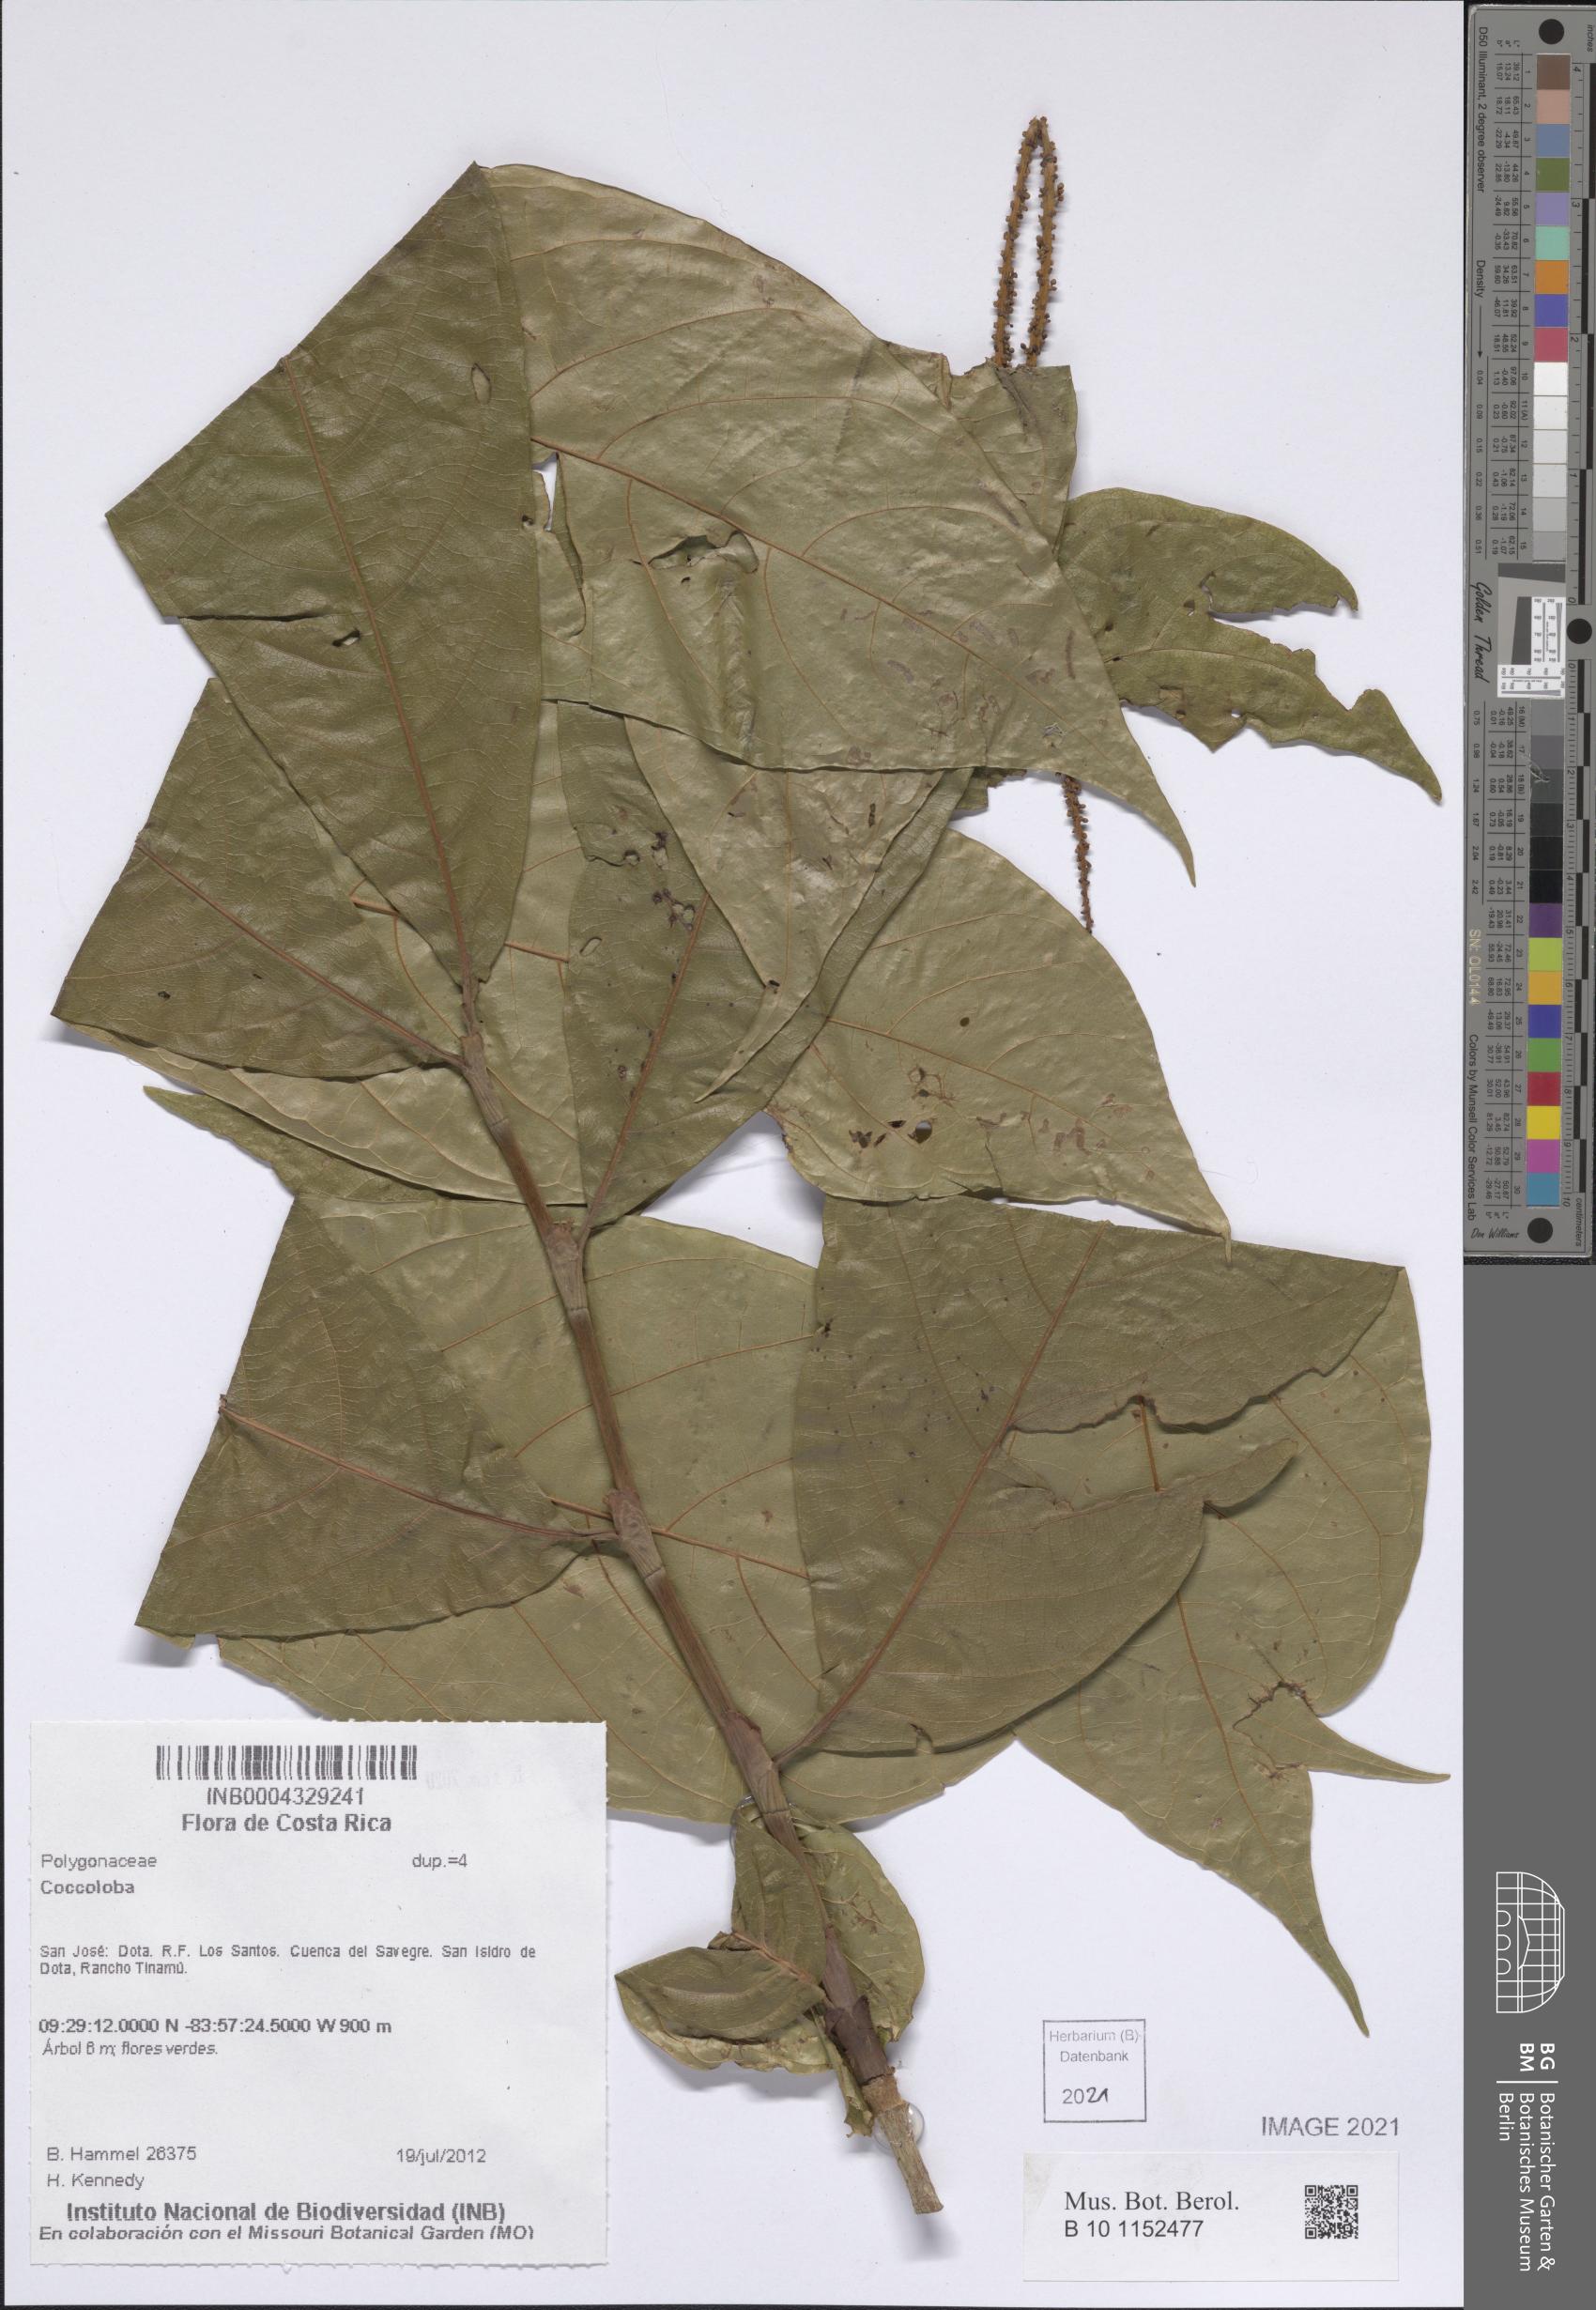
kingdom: Plantae
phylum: Tracheophyta
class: Magnoliopsida
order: Caryophyllales
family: Polygonaceae
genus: Coccoloba
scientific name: Coccoloba
